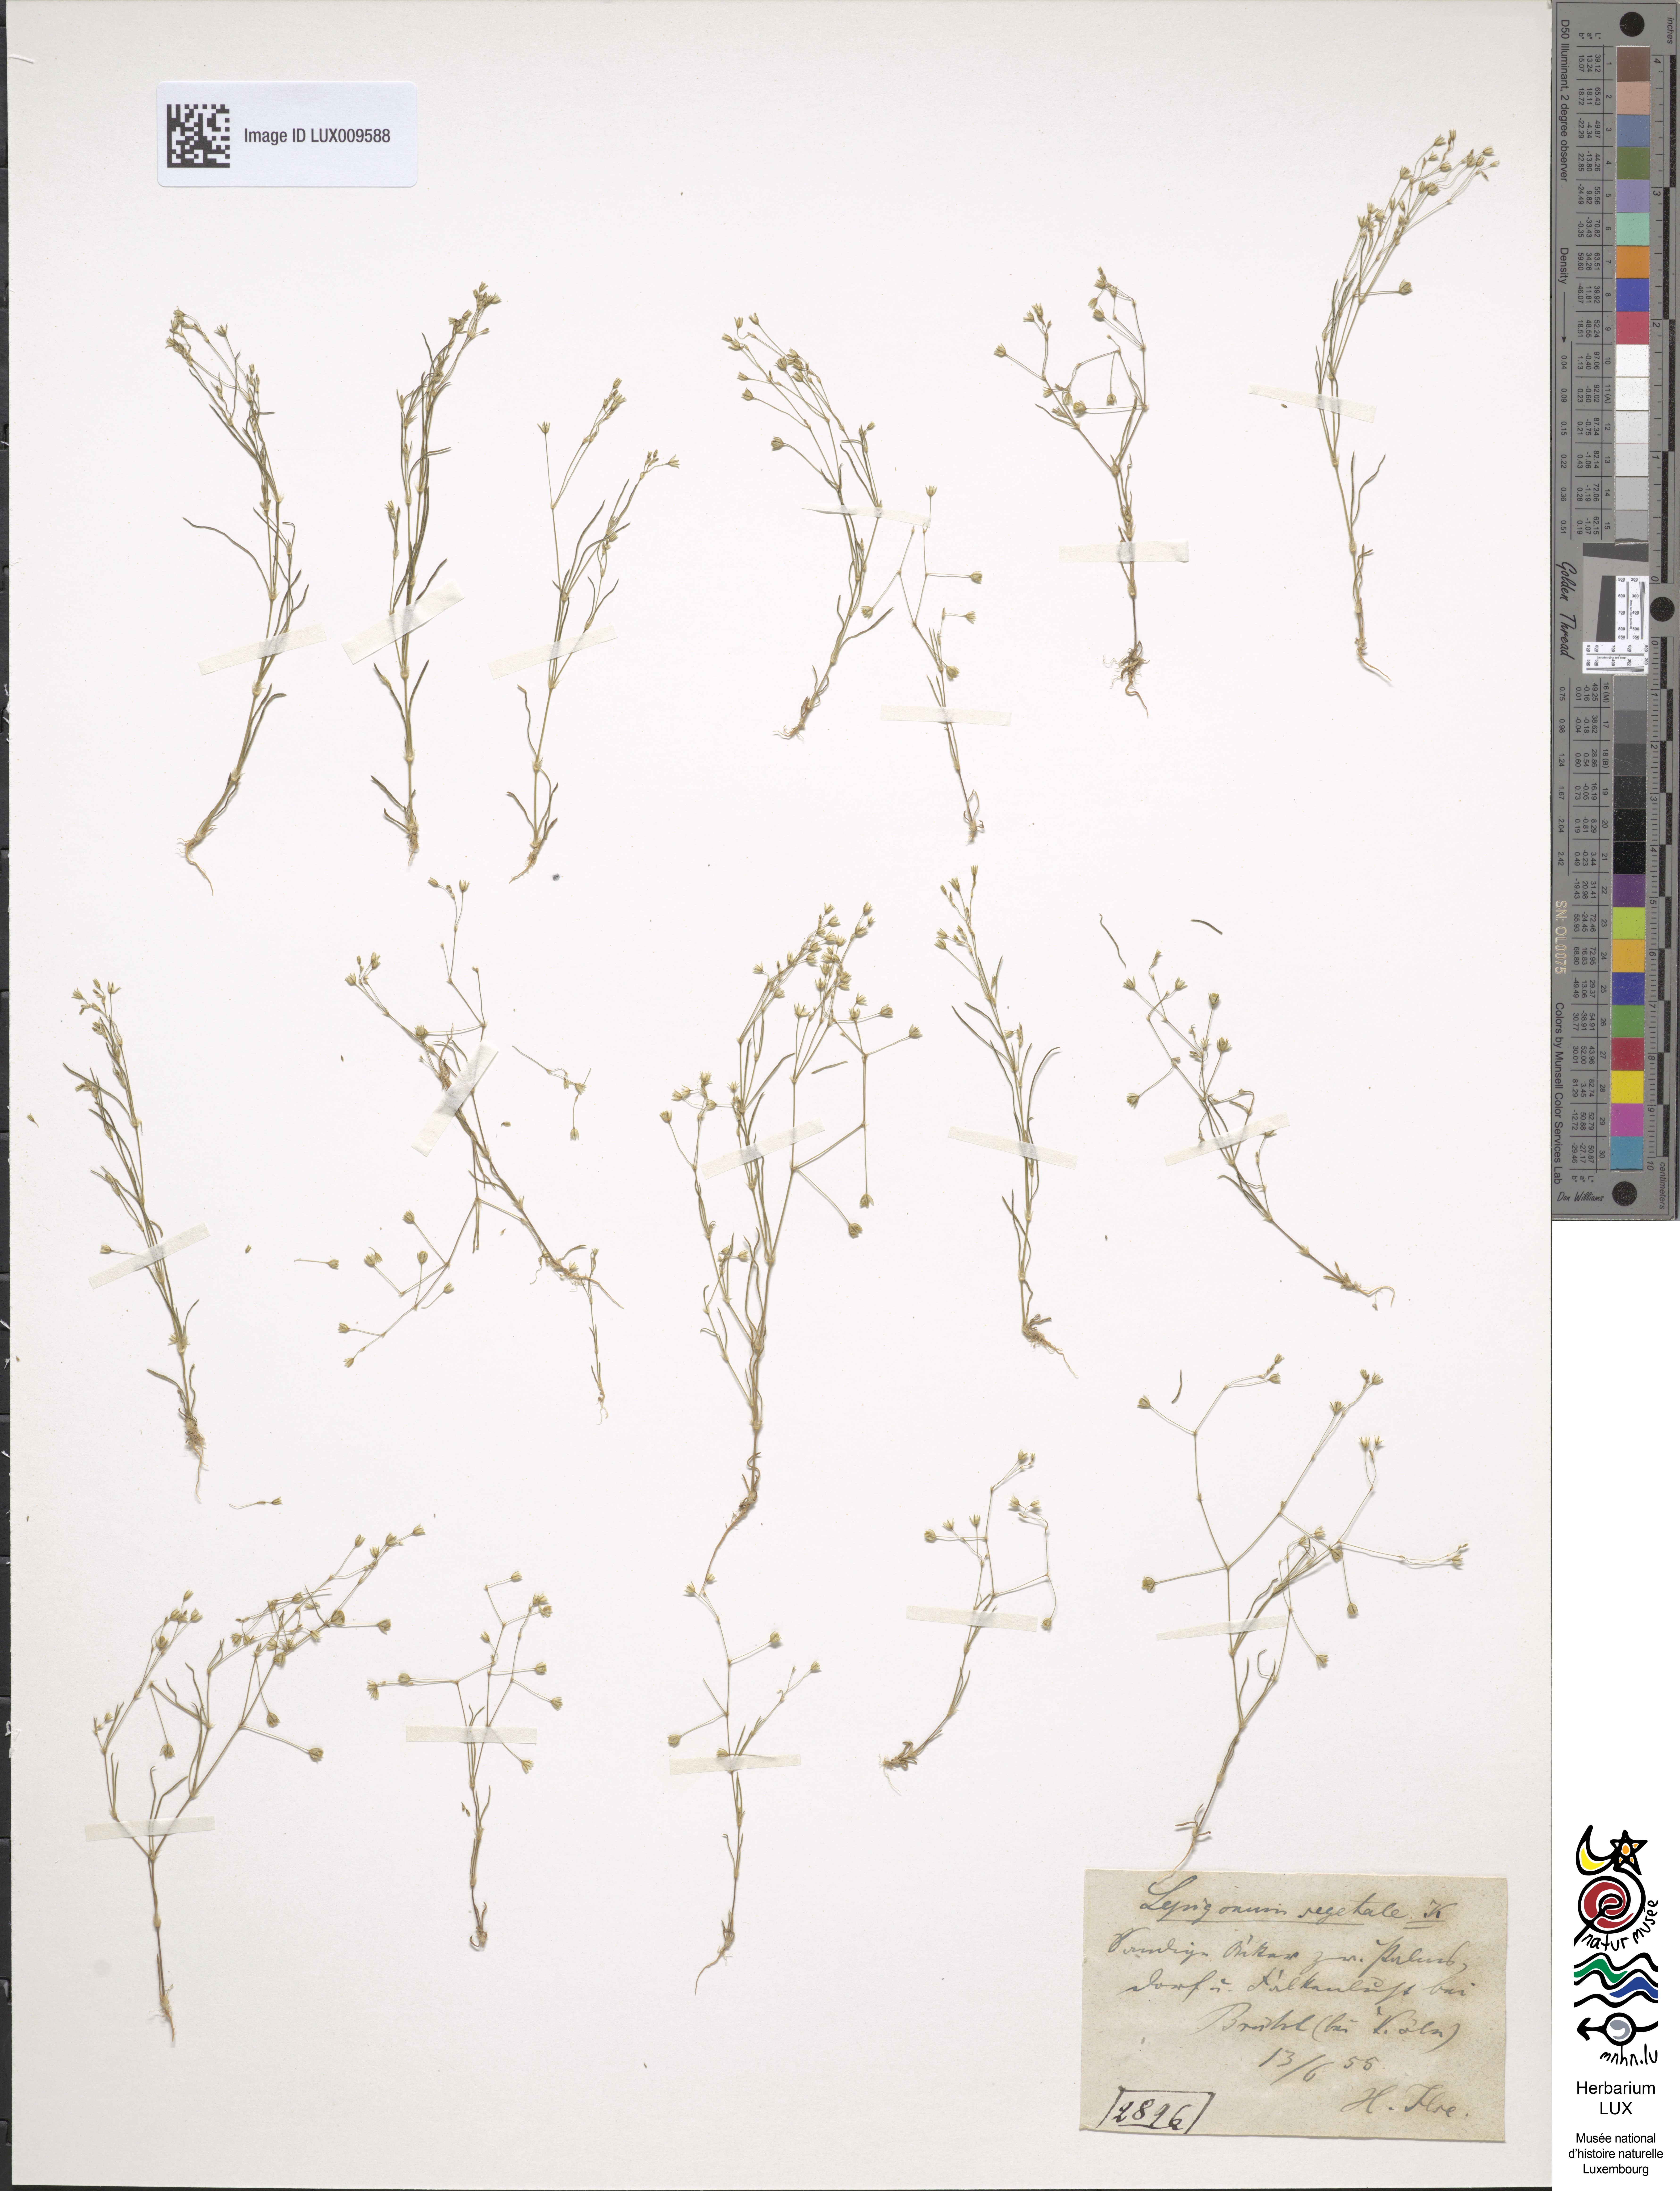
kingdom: Plantae
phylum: Tracheophyta
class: Magnoliopsida
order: Caryophyllales
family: Caryophyllaceae
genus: Spergularia
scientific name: Spergularia segetalis
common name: Corn sand spurrey
